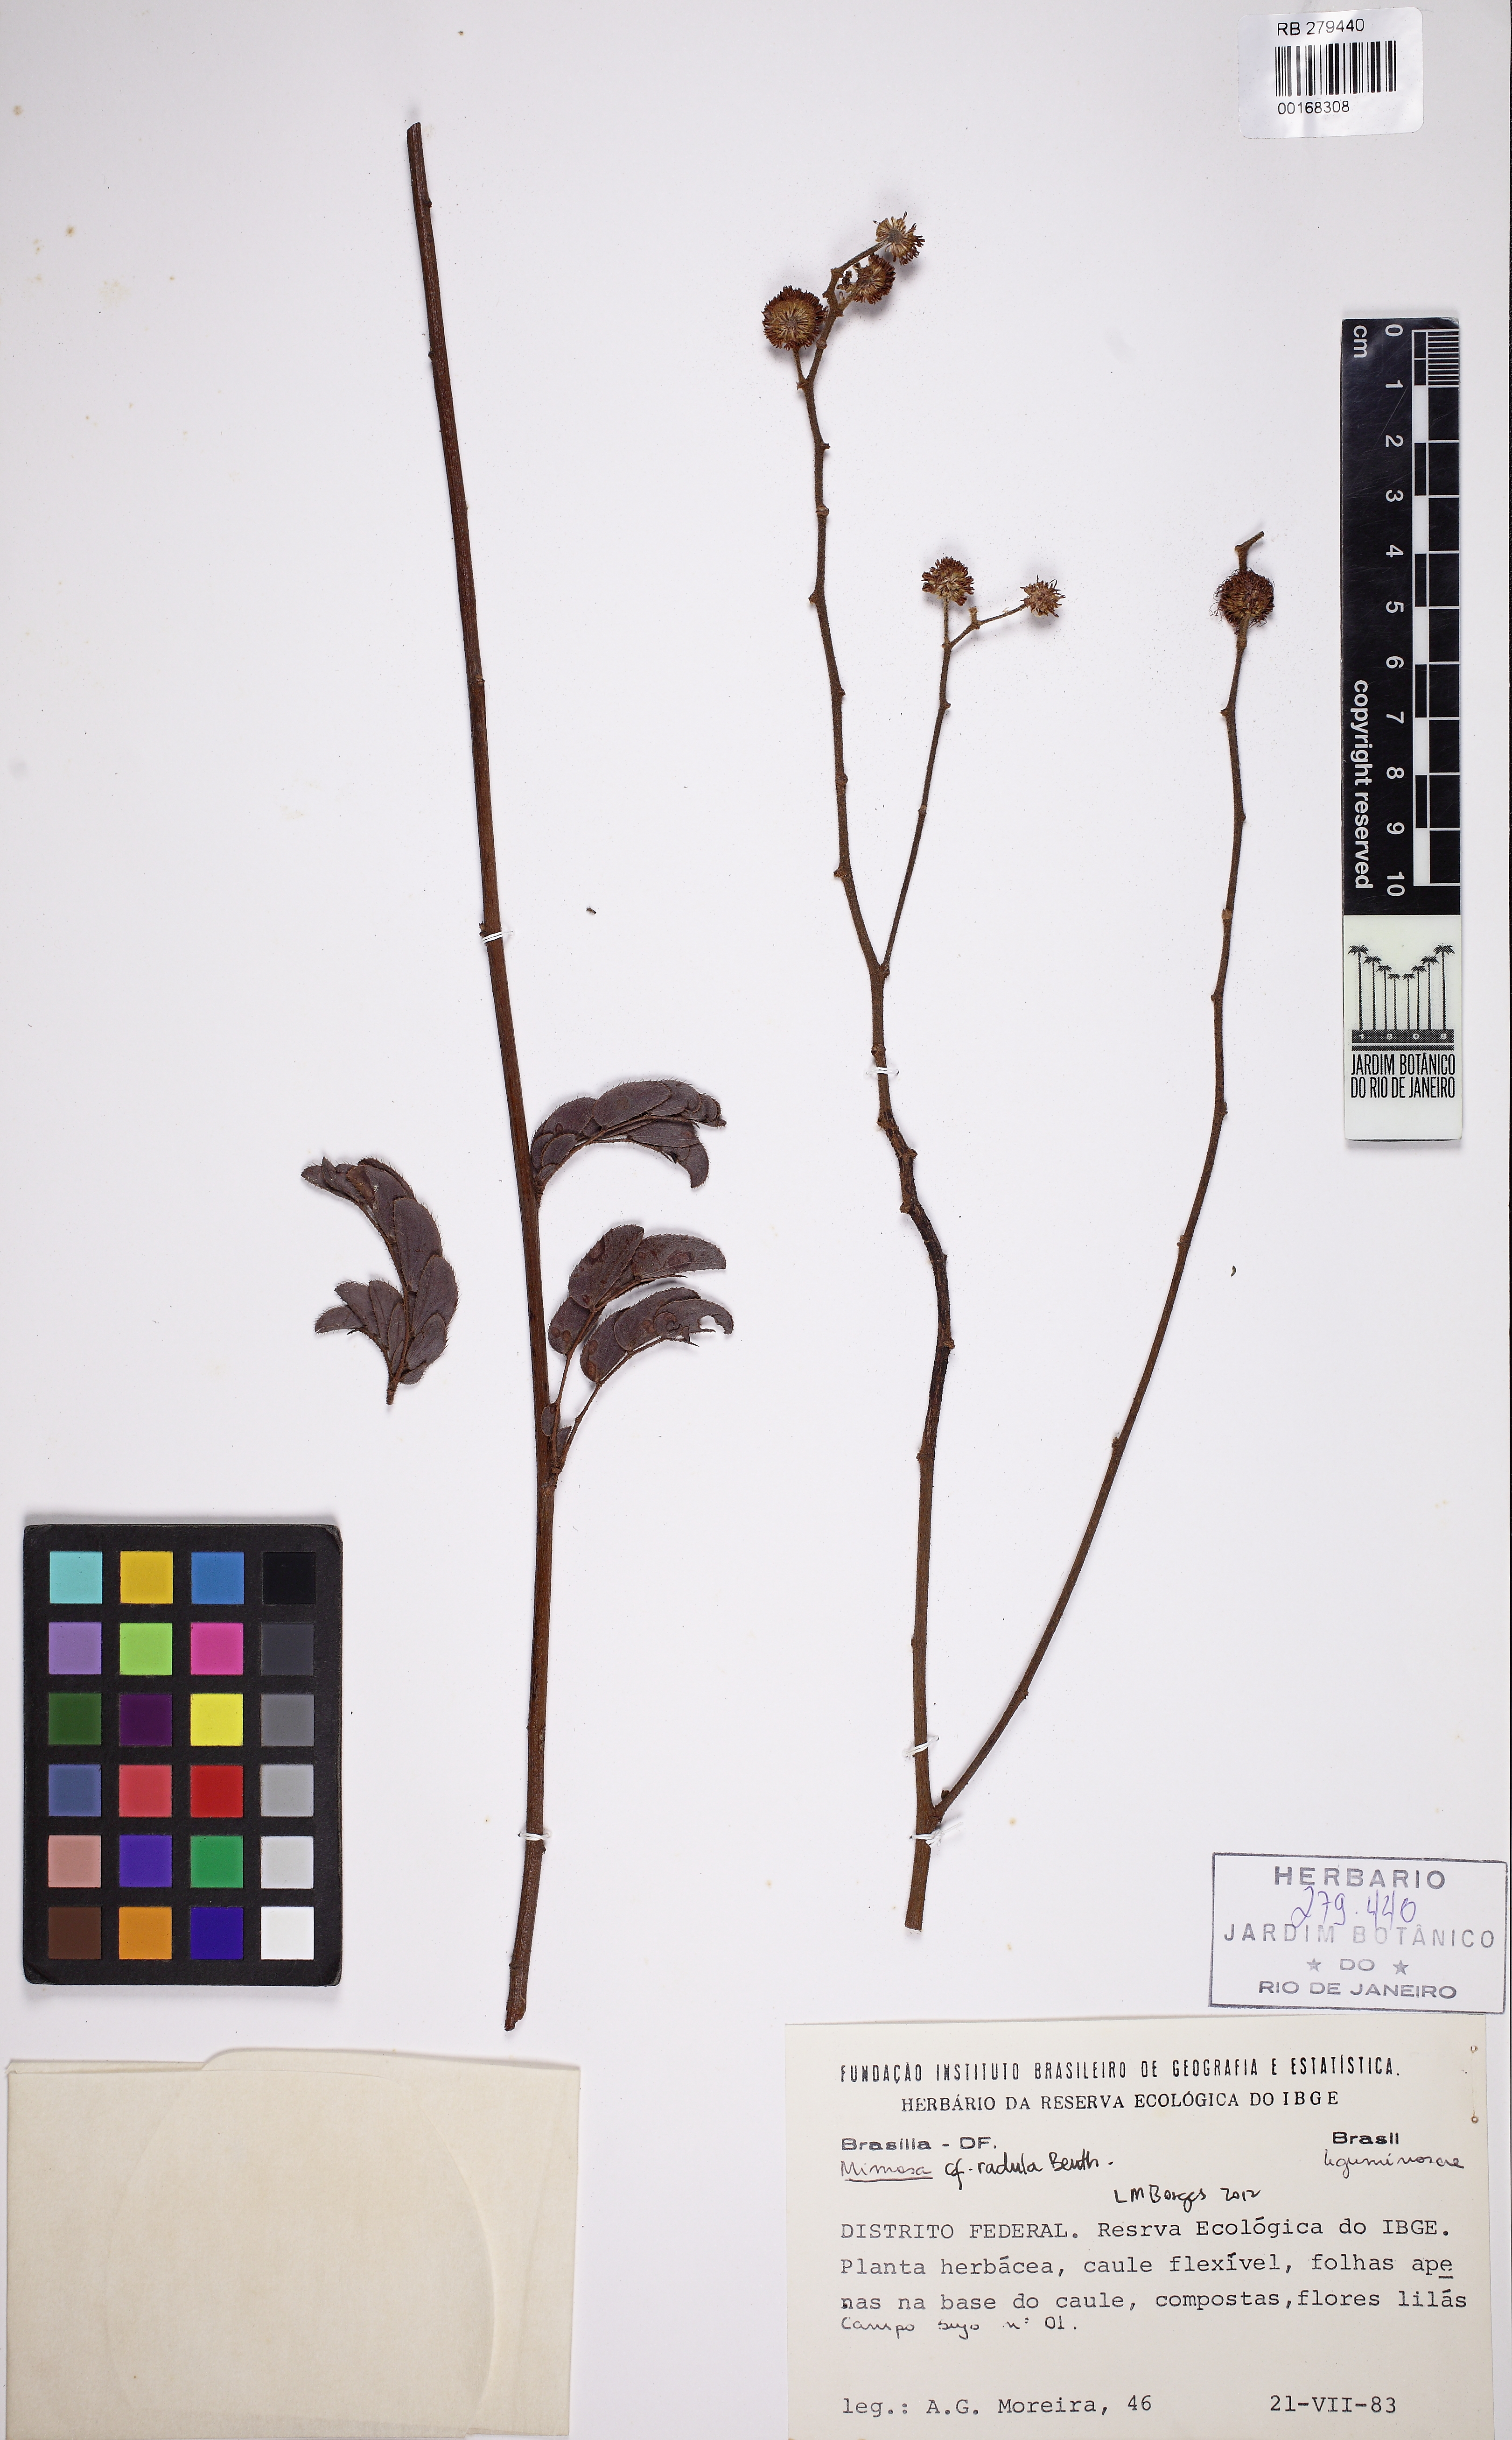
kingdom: Plantae
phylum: Tracheophyta
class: Magnoliopsida
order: Fabales
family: Fabaceae
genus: Mimosa
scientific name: Mimosa radula
